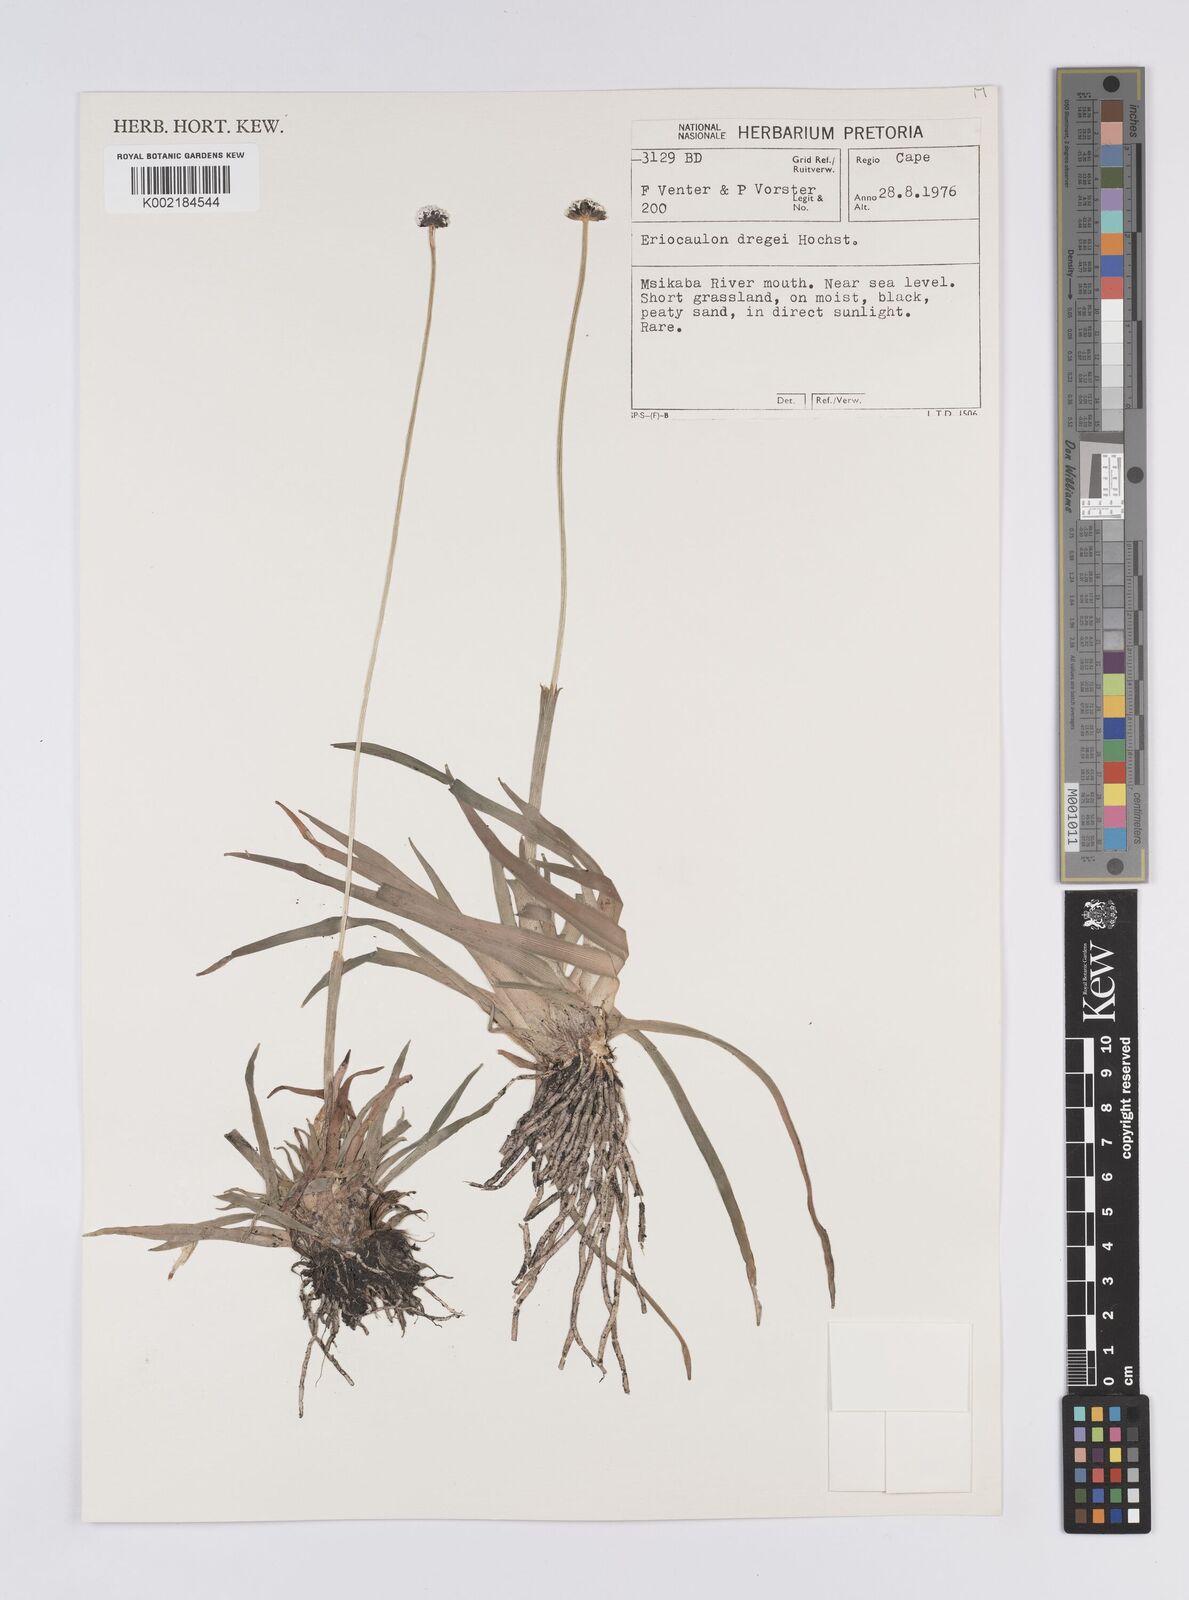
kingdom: Plantae
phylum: Tracheophyta
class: Liliopsida
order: Poales
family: Eriocaulaceae
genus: Eriocaulon
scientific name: Eriocaulon dregei
